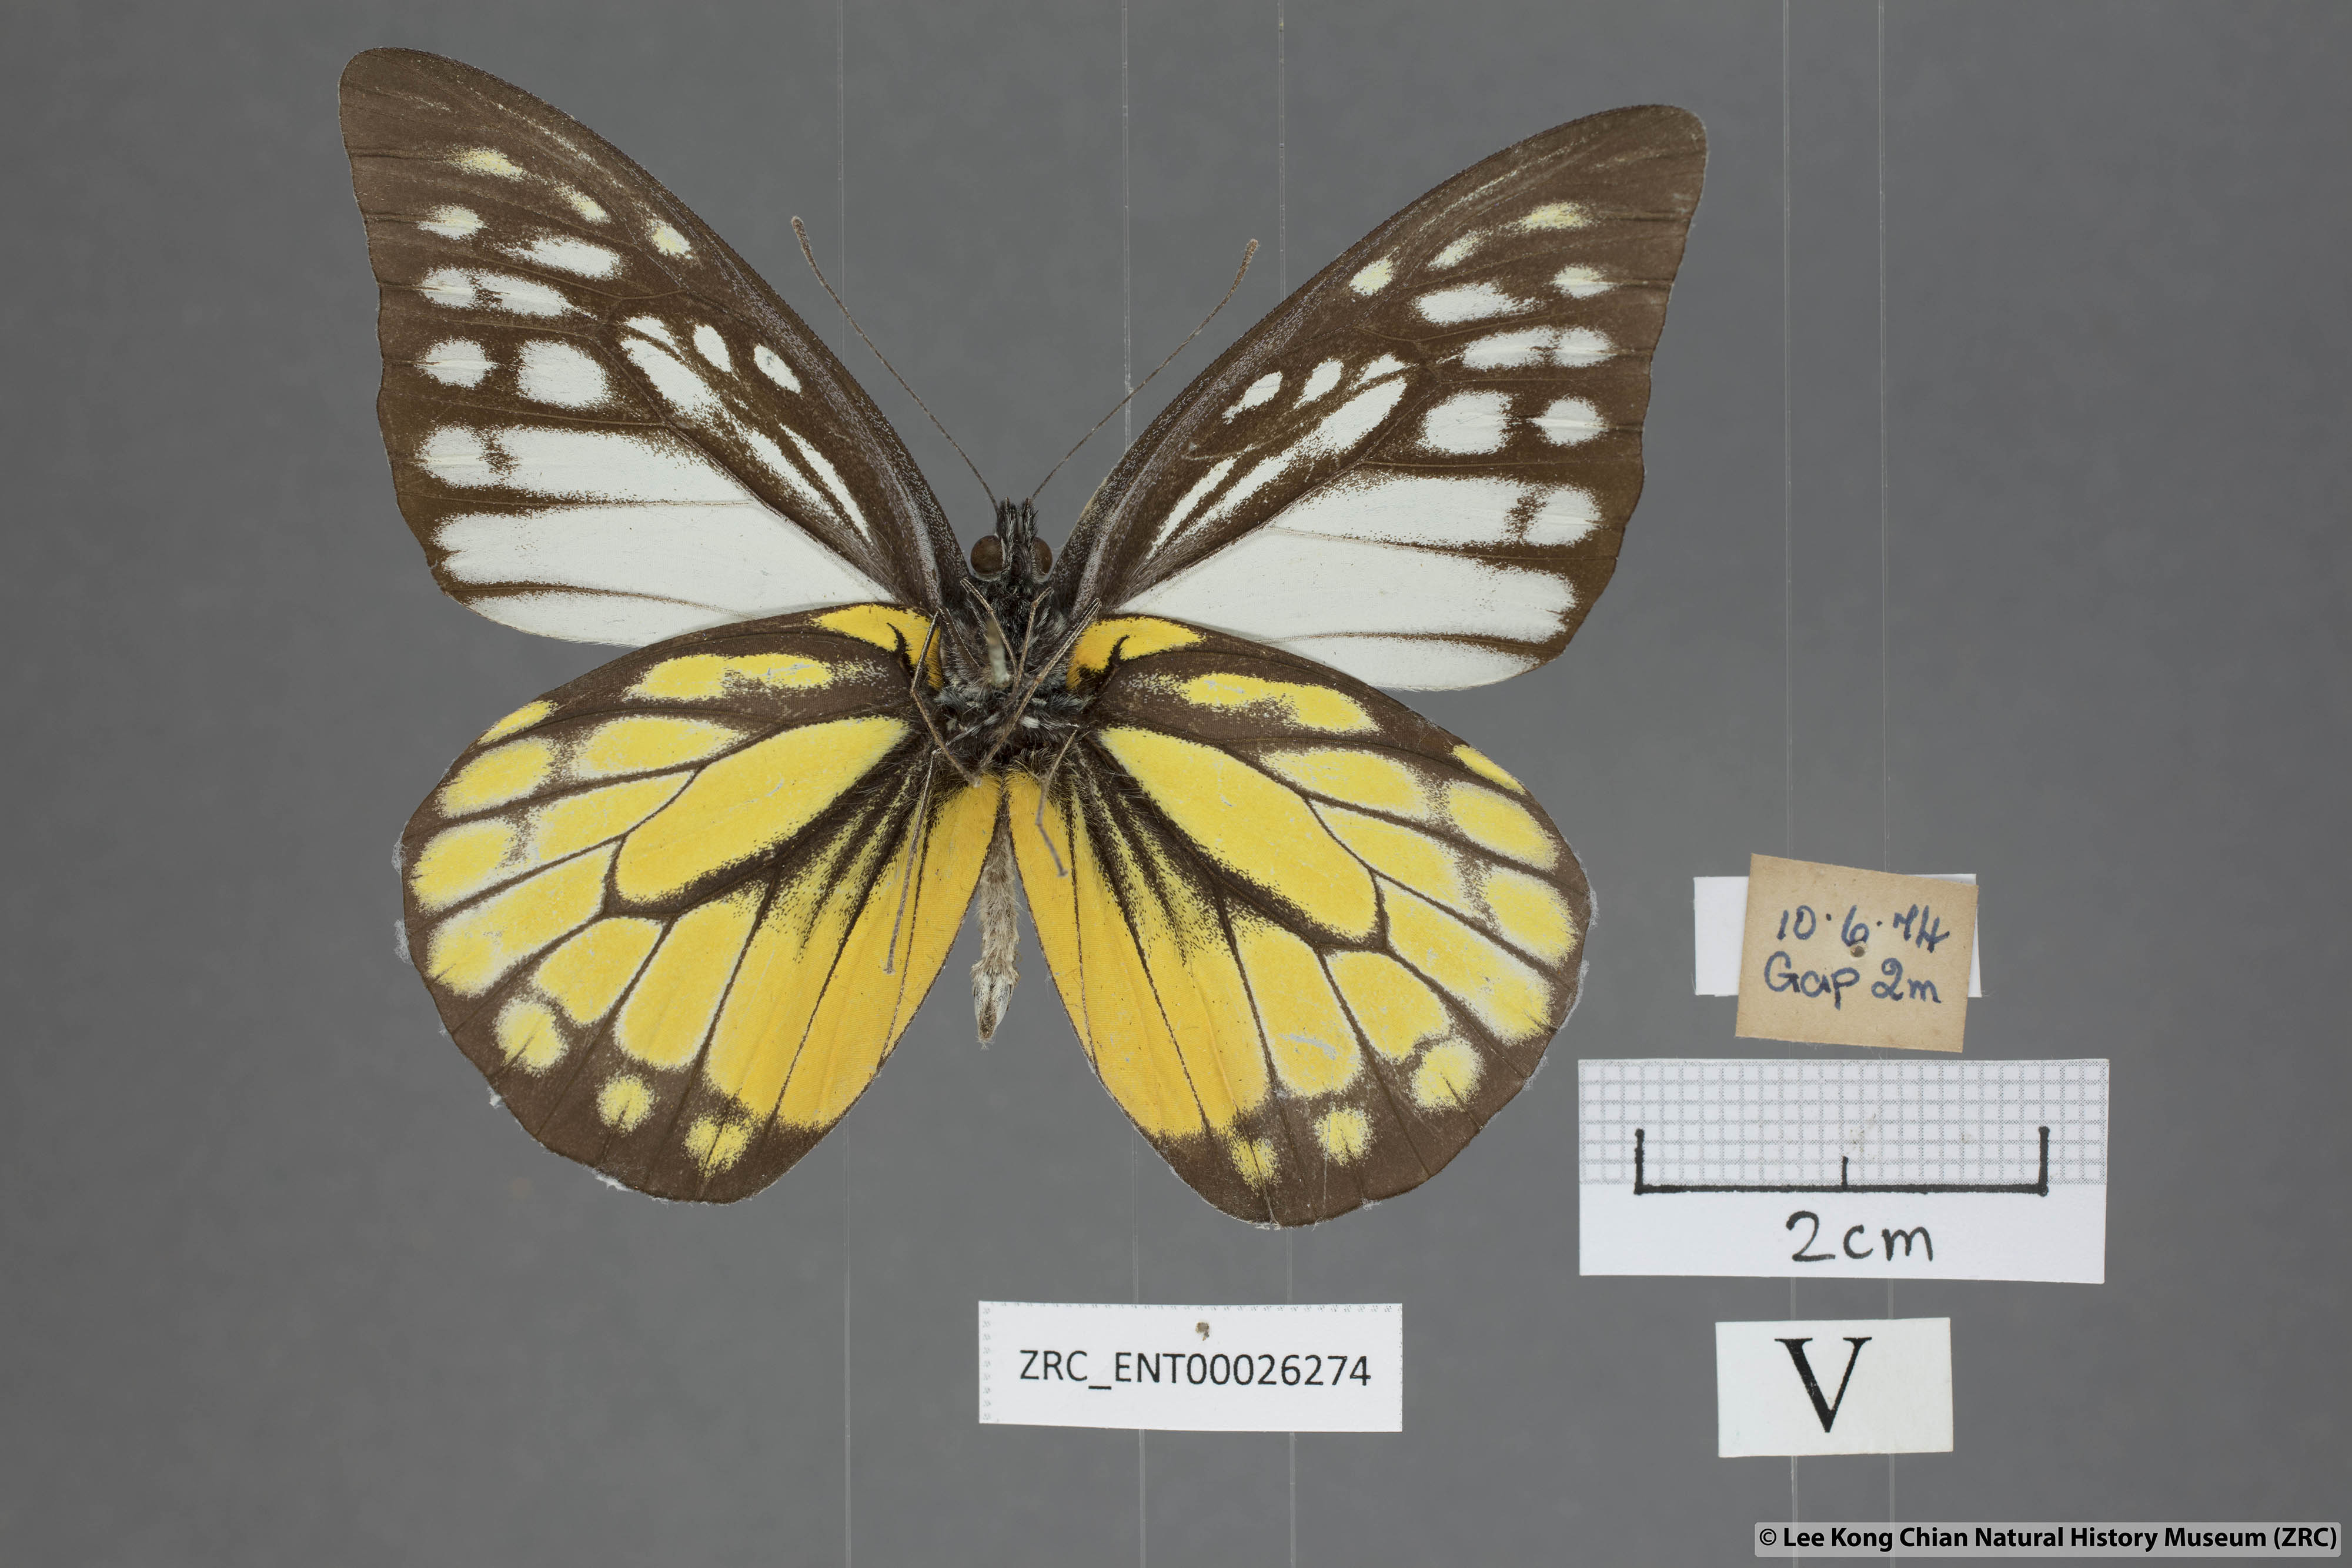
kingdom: Animalia
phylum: Arthropoda
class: Insecta
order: Lepidoptera
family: Pieridae
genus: Prioneris
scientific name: Prioneris thestylis
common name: Spotted sawtooth
